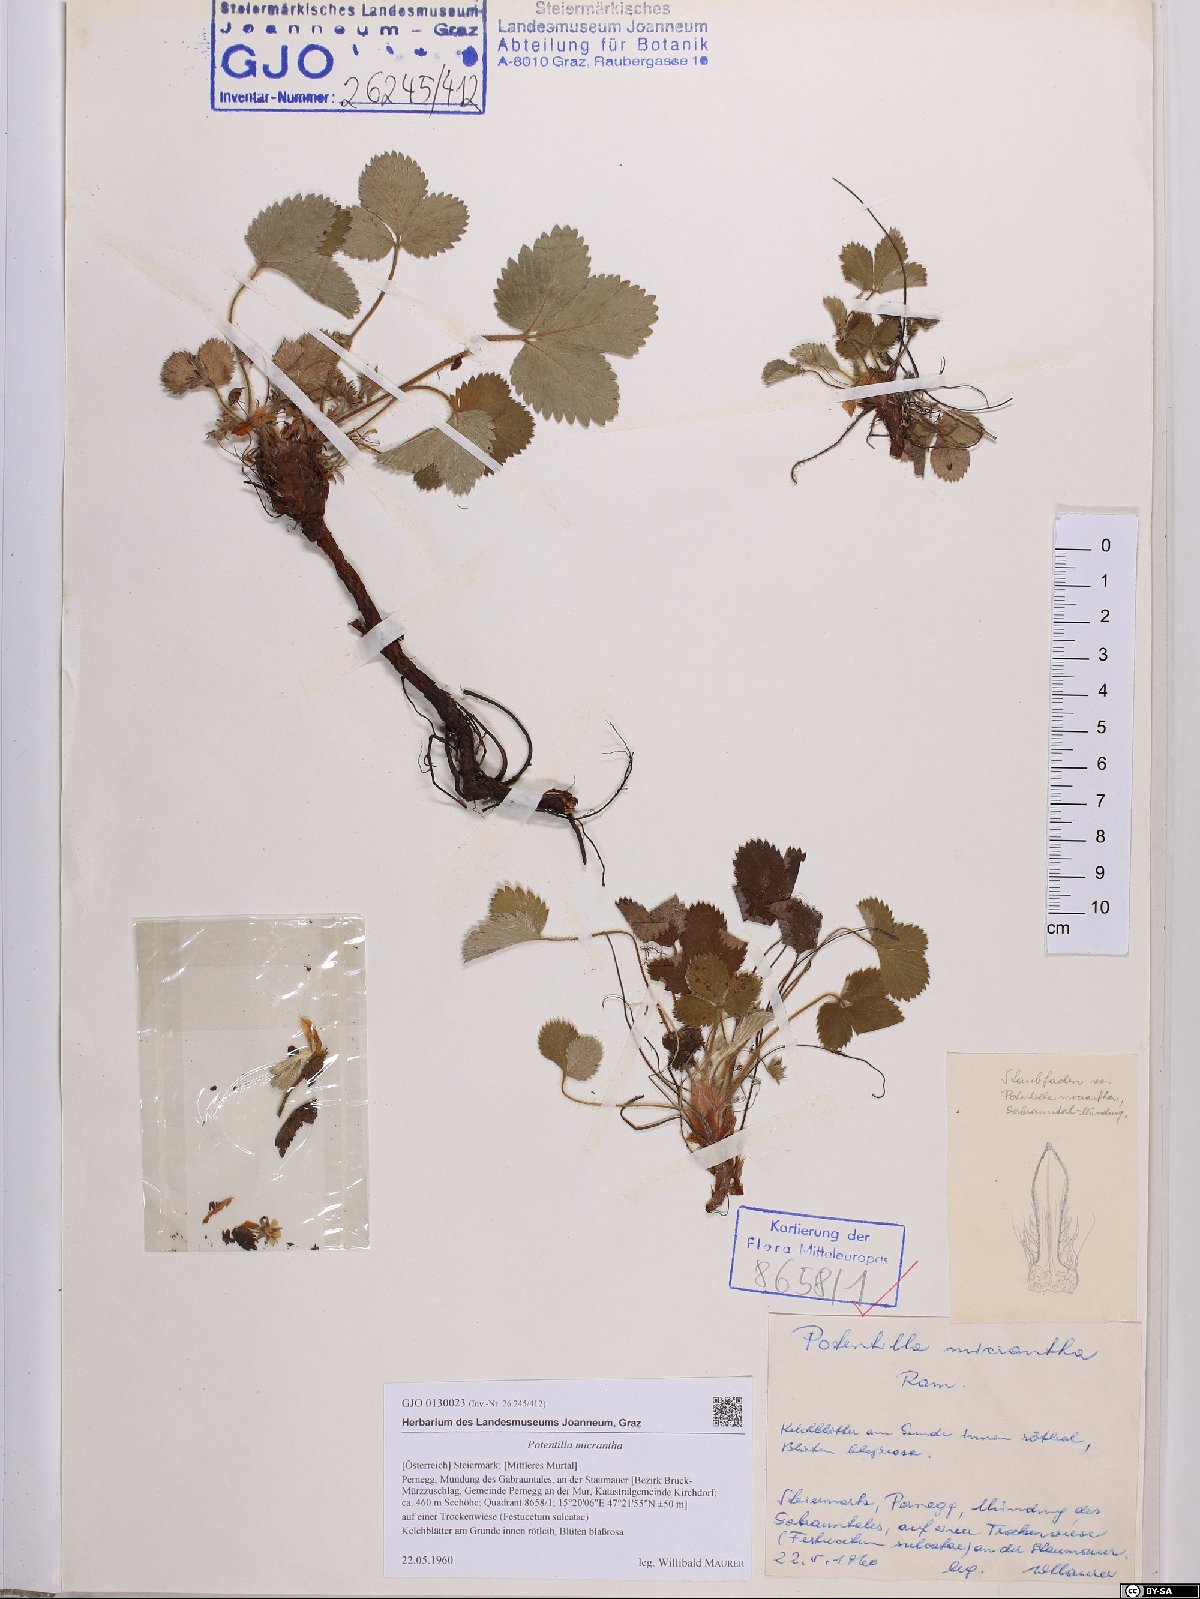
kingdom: Plantae
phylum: Tracheophyta
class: Magnoliopsida
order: Rosales
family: Rosaceae
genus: Potentilla
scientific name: Potentilla micrantha
